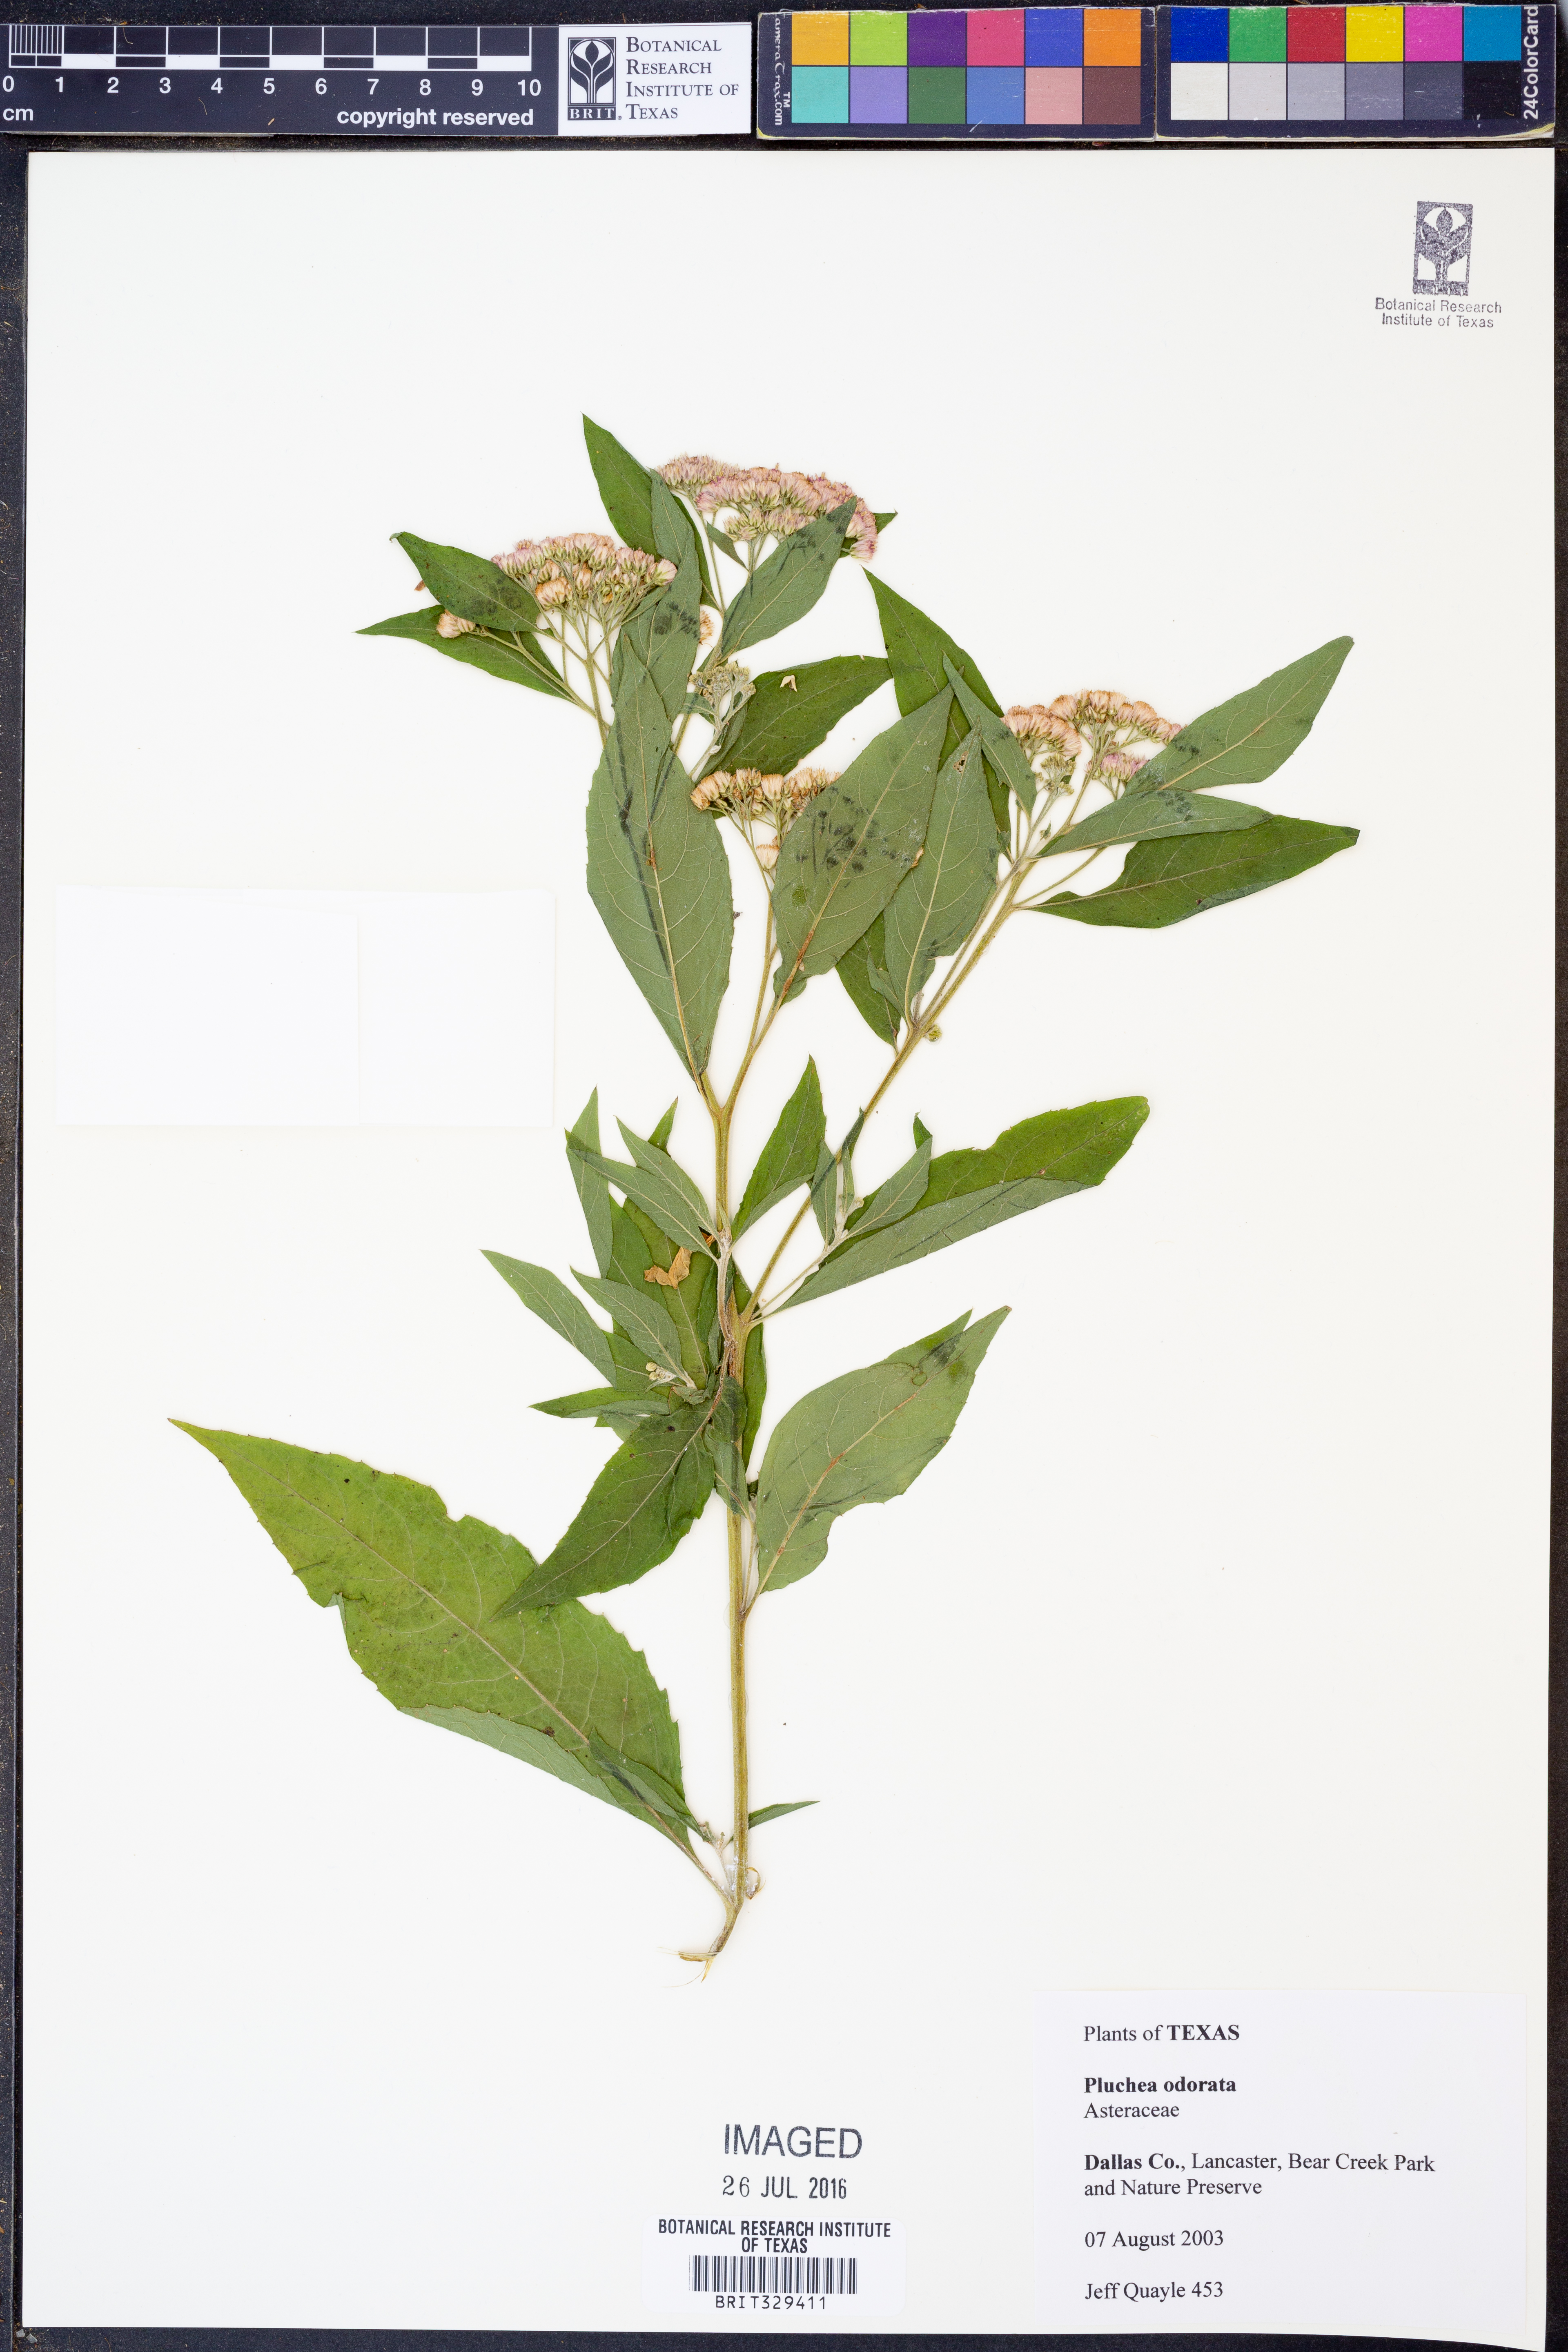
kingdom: Plantae
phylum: Tracheophyta
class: Magnoliopsida
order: Asterales
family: Asteraceae
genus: Pluchea
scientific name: Pluchea odorata
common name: Saltmarsh fleabane
